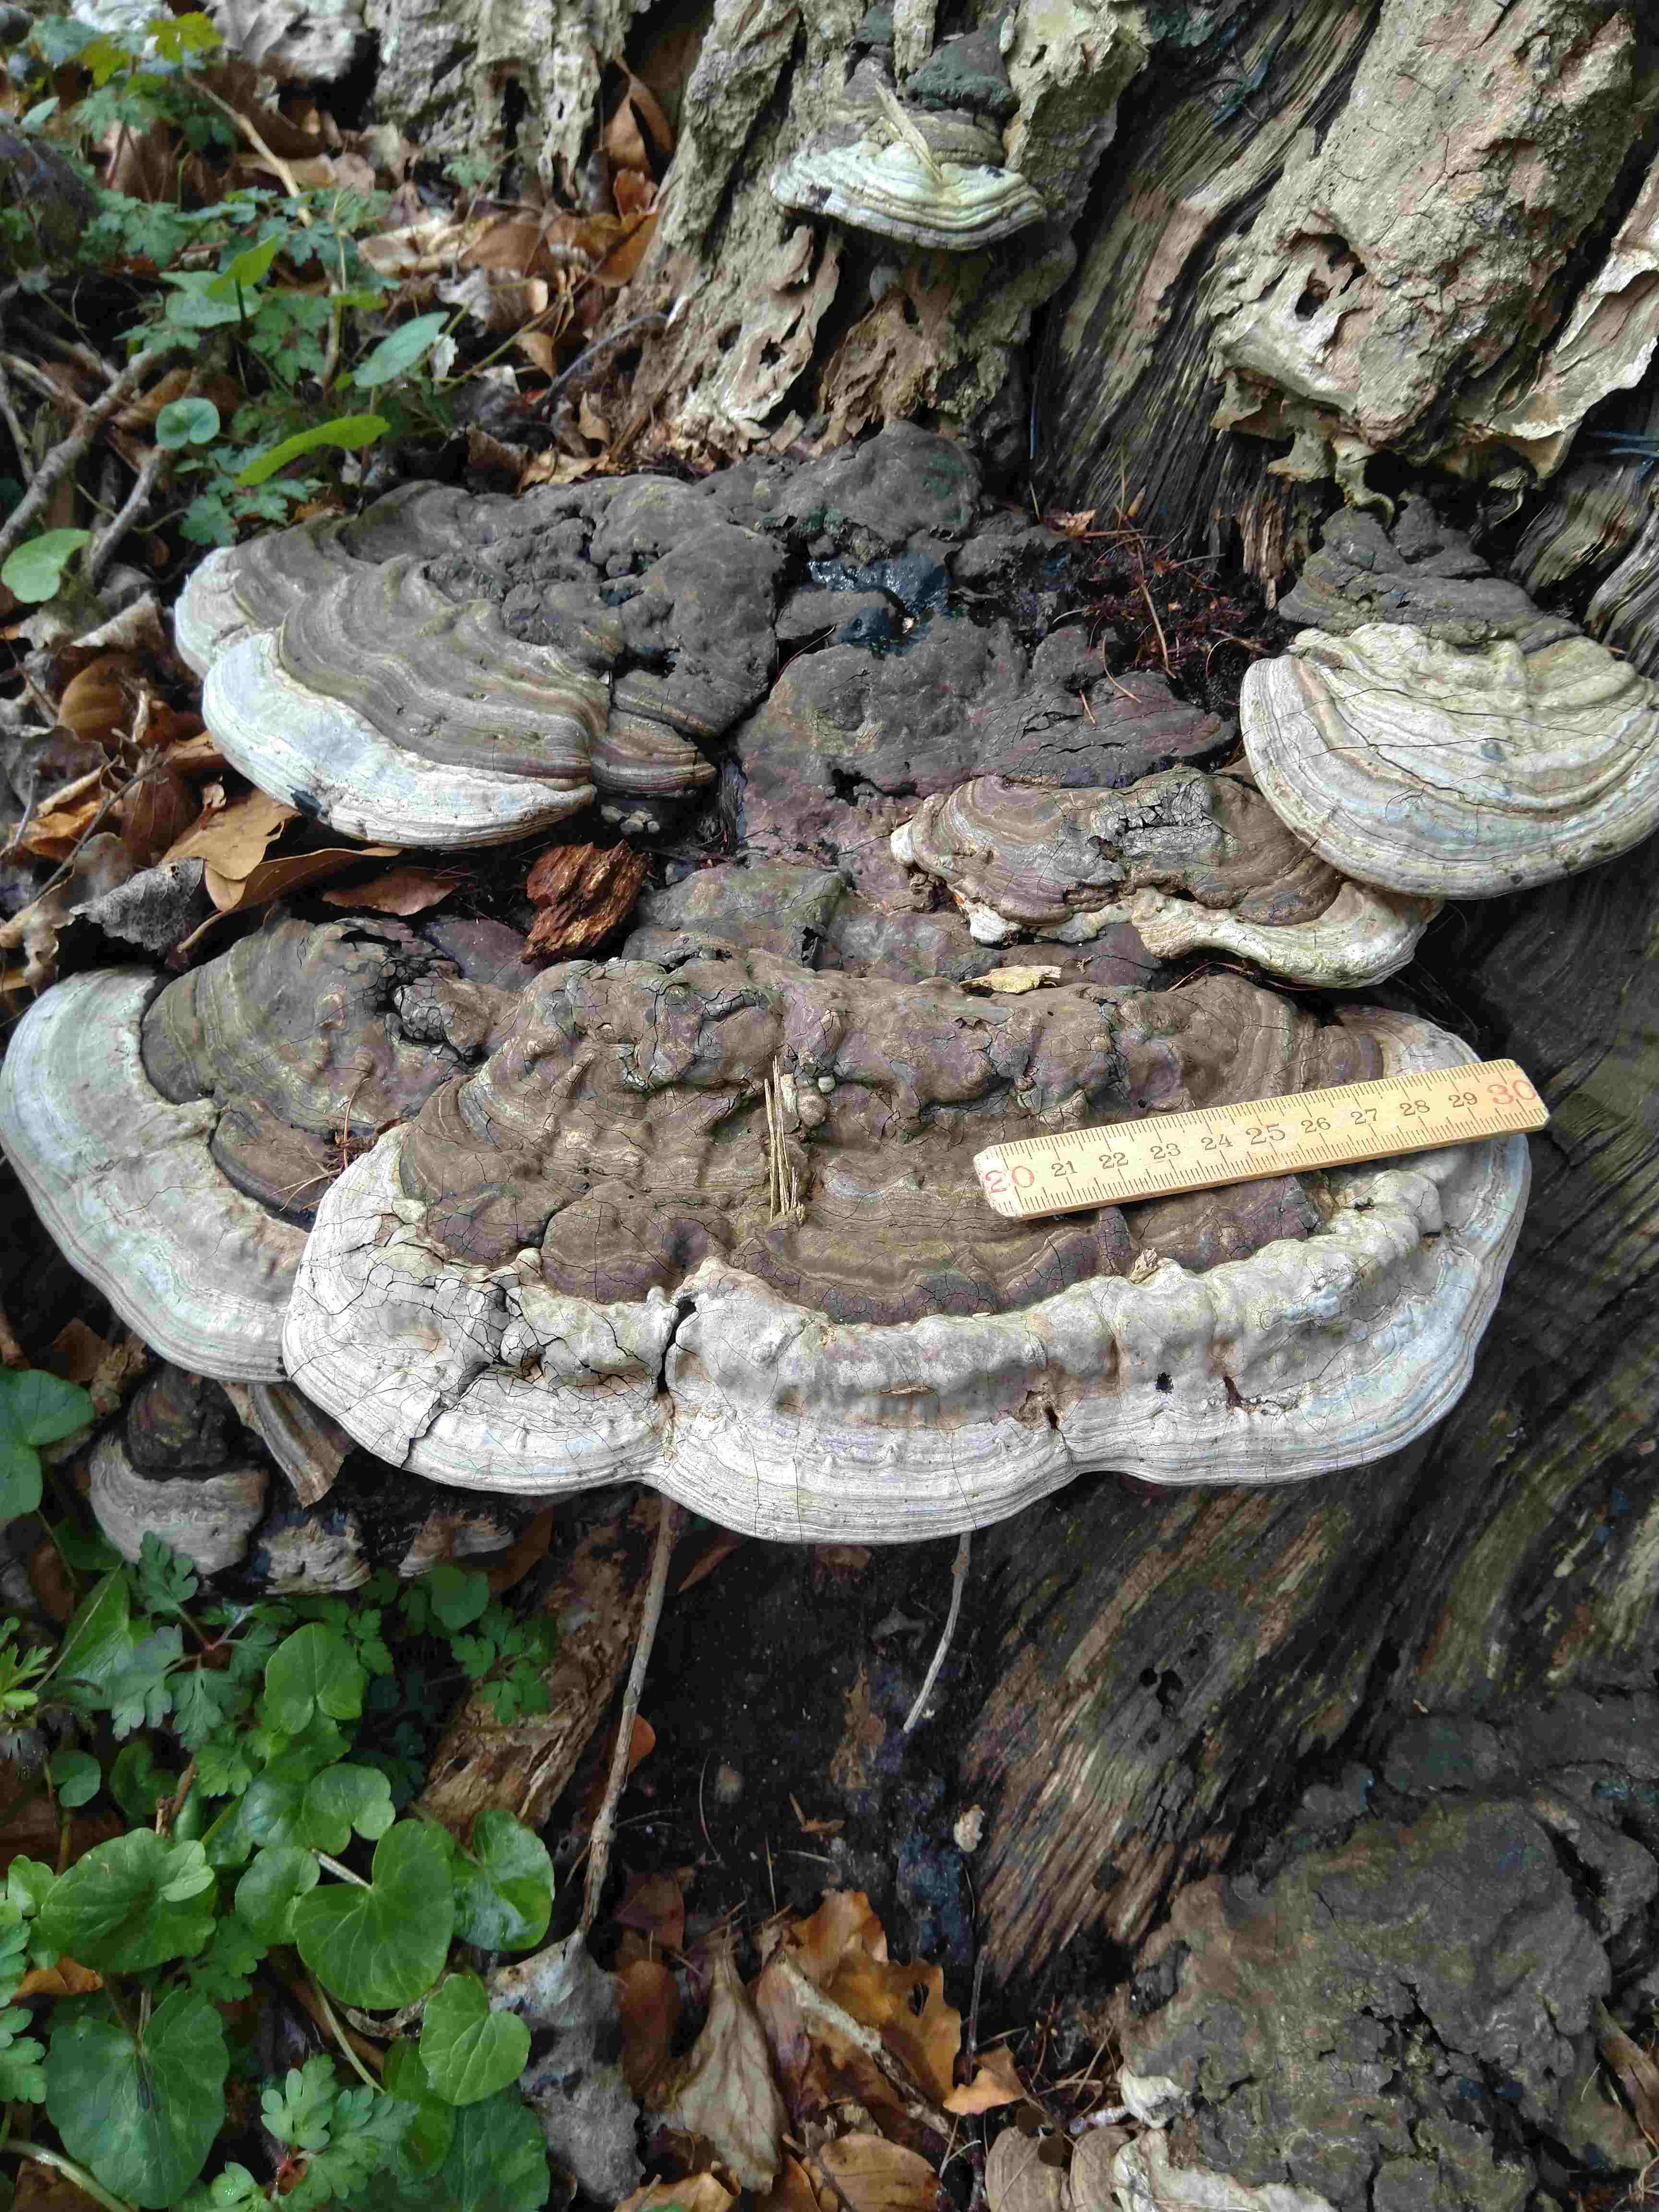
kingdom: Fungi
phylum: Basidiomycota
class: Agaricomycetes
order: Polyporales
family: Polyporaceae
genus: Ganoderma
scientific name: Ganoderma applanatum
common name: flad lakporesvamp
